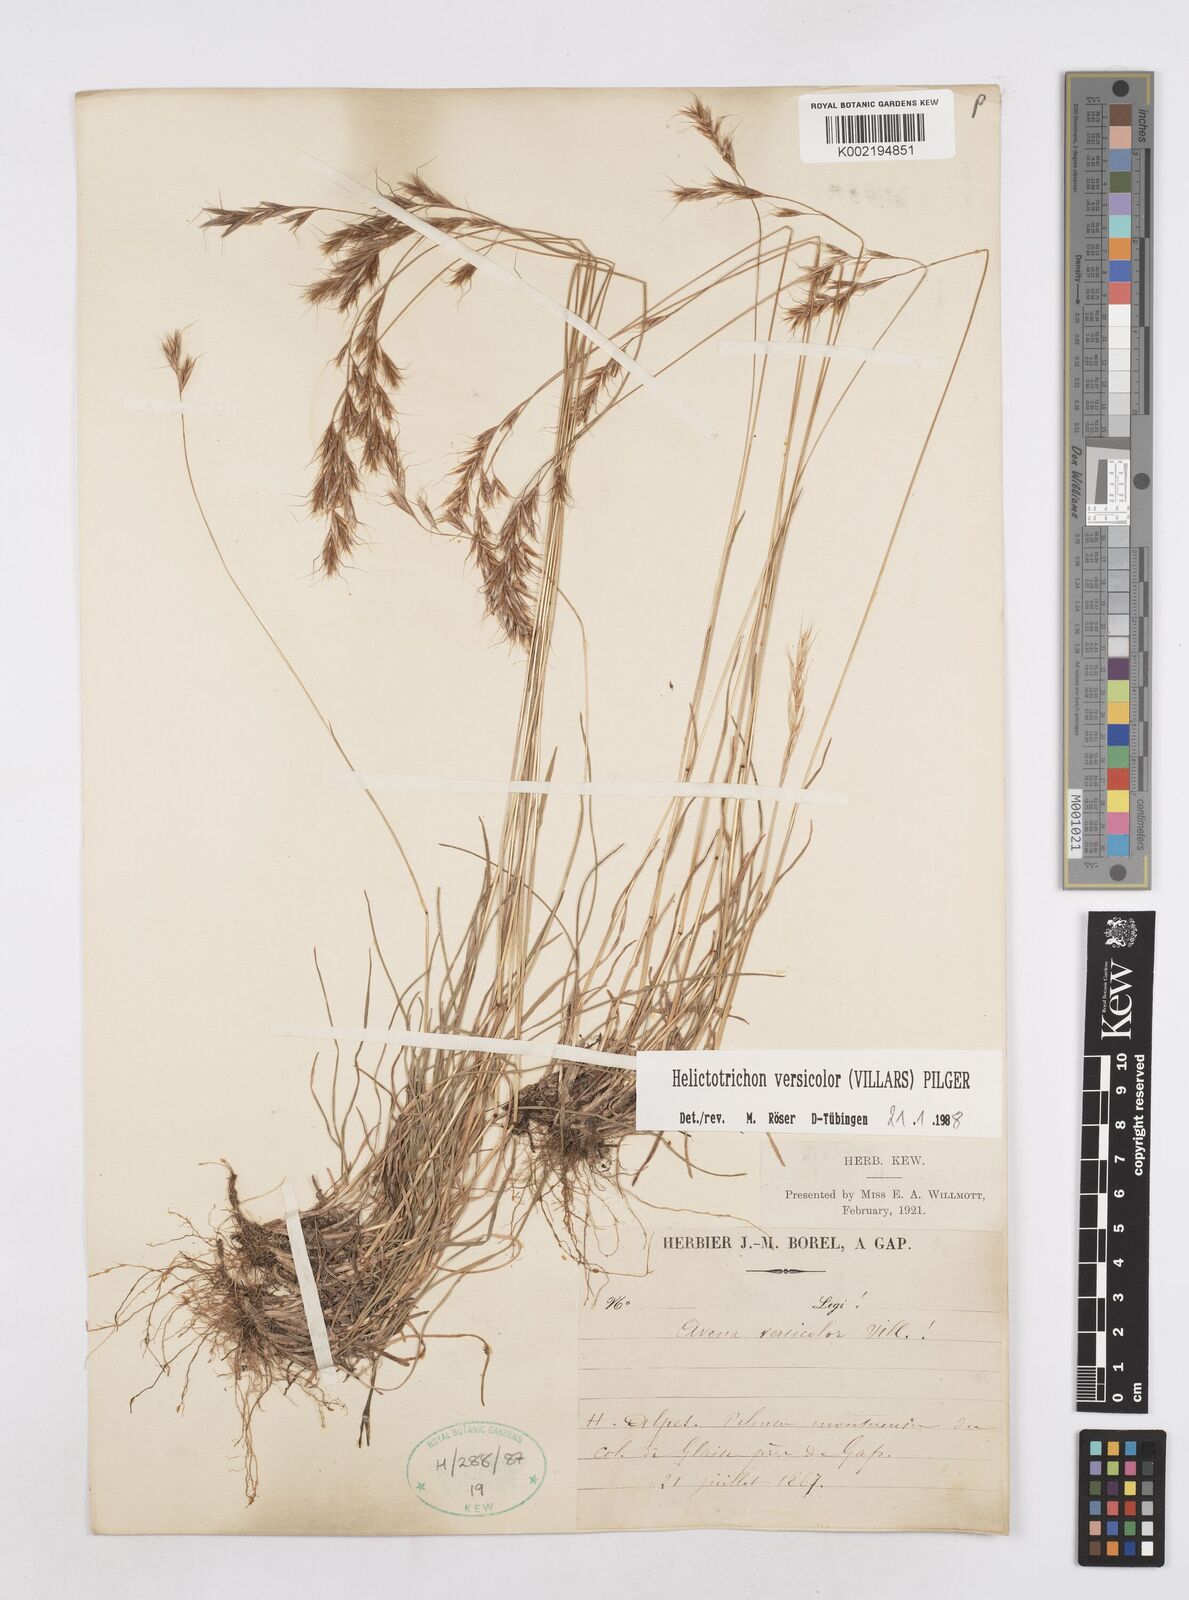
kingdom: Plantae
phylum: Tracheophyta
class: Liliopsida
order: Poales
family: Poaceae
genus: Helictochloa
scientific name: Helictochloa versicolor
